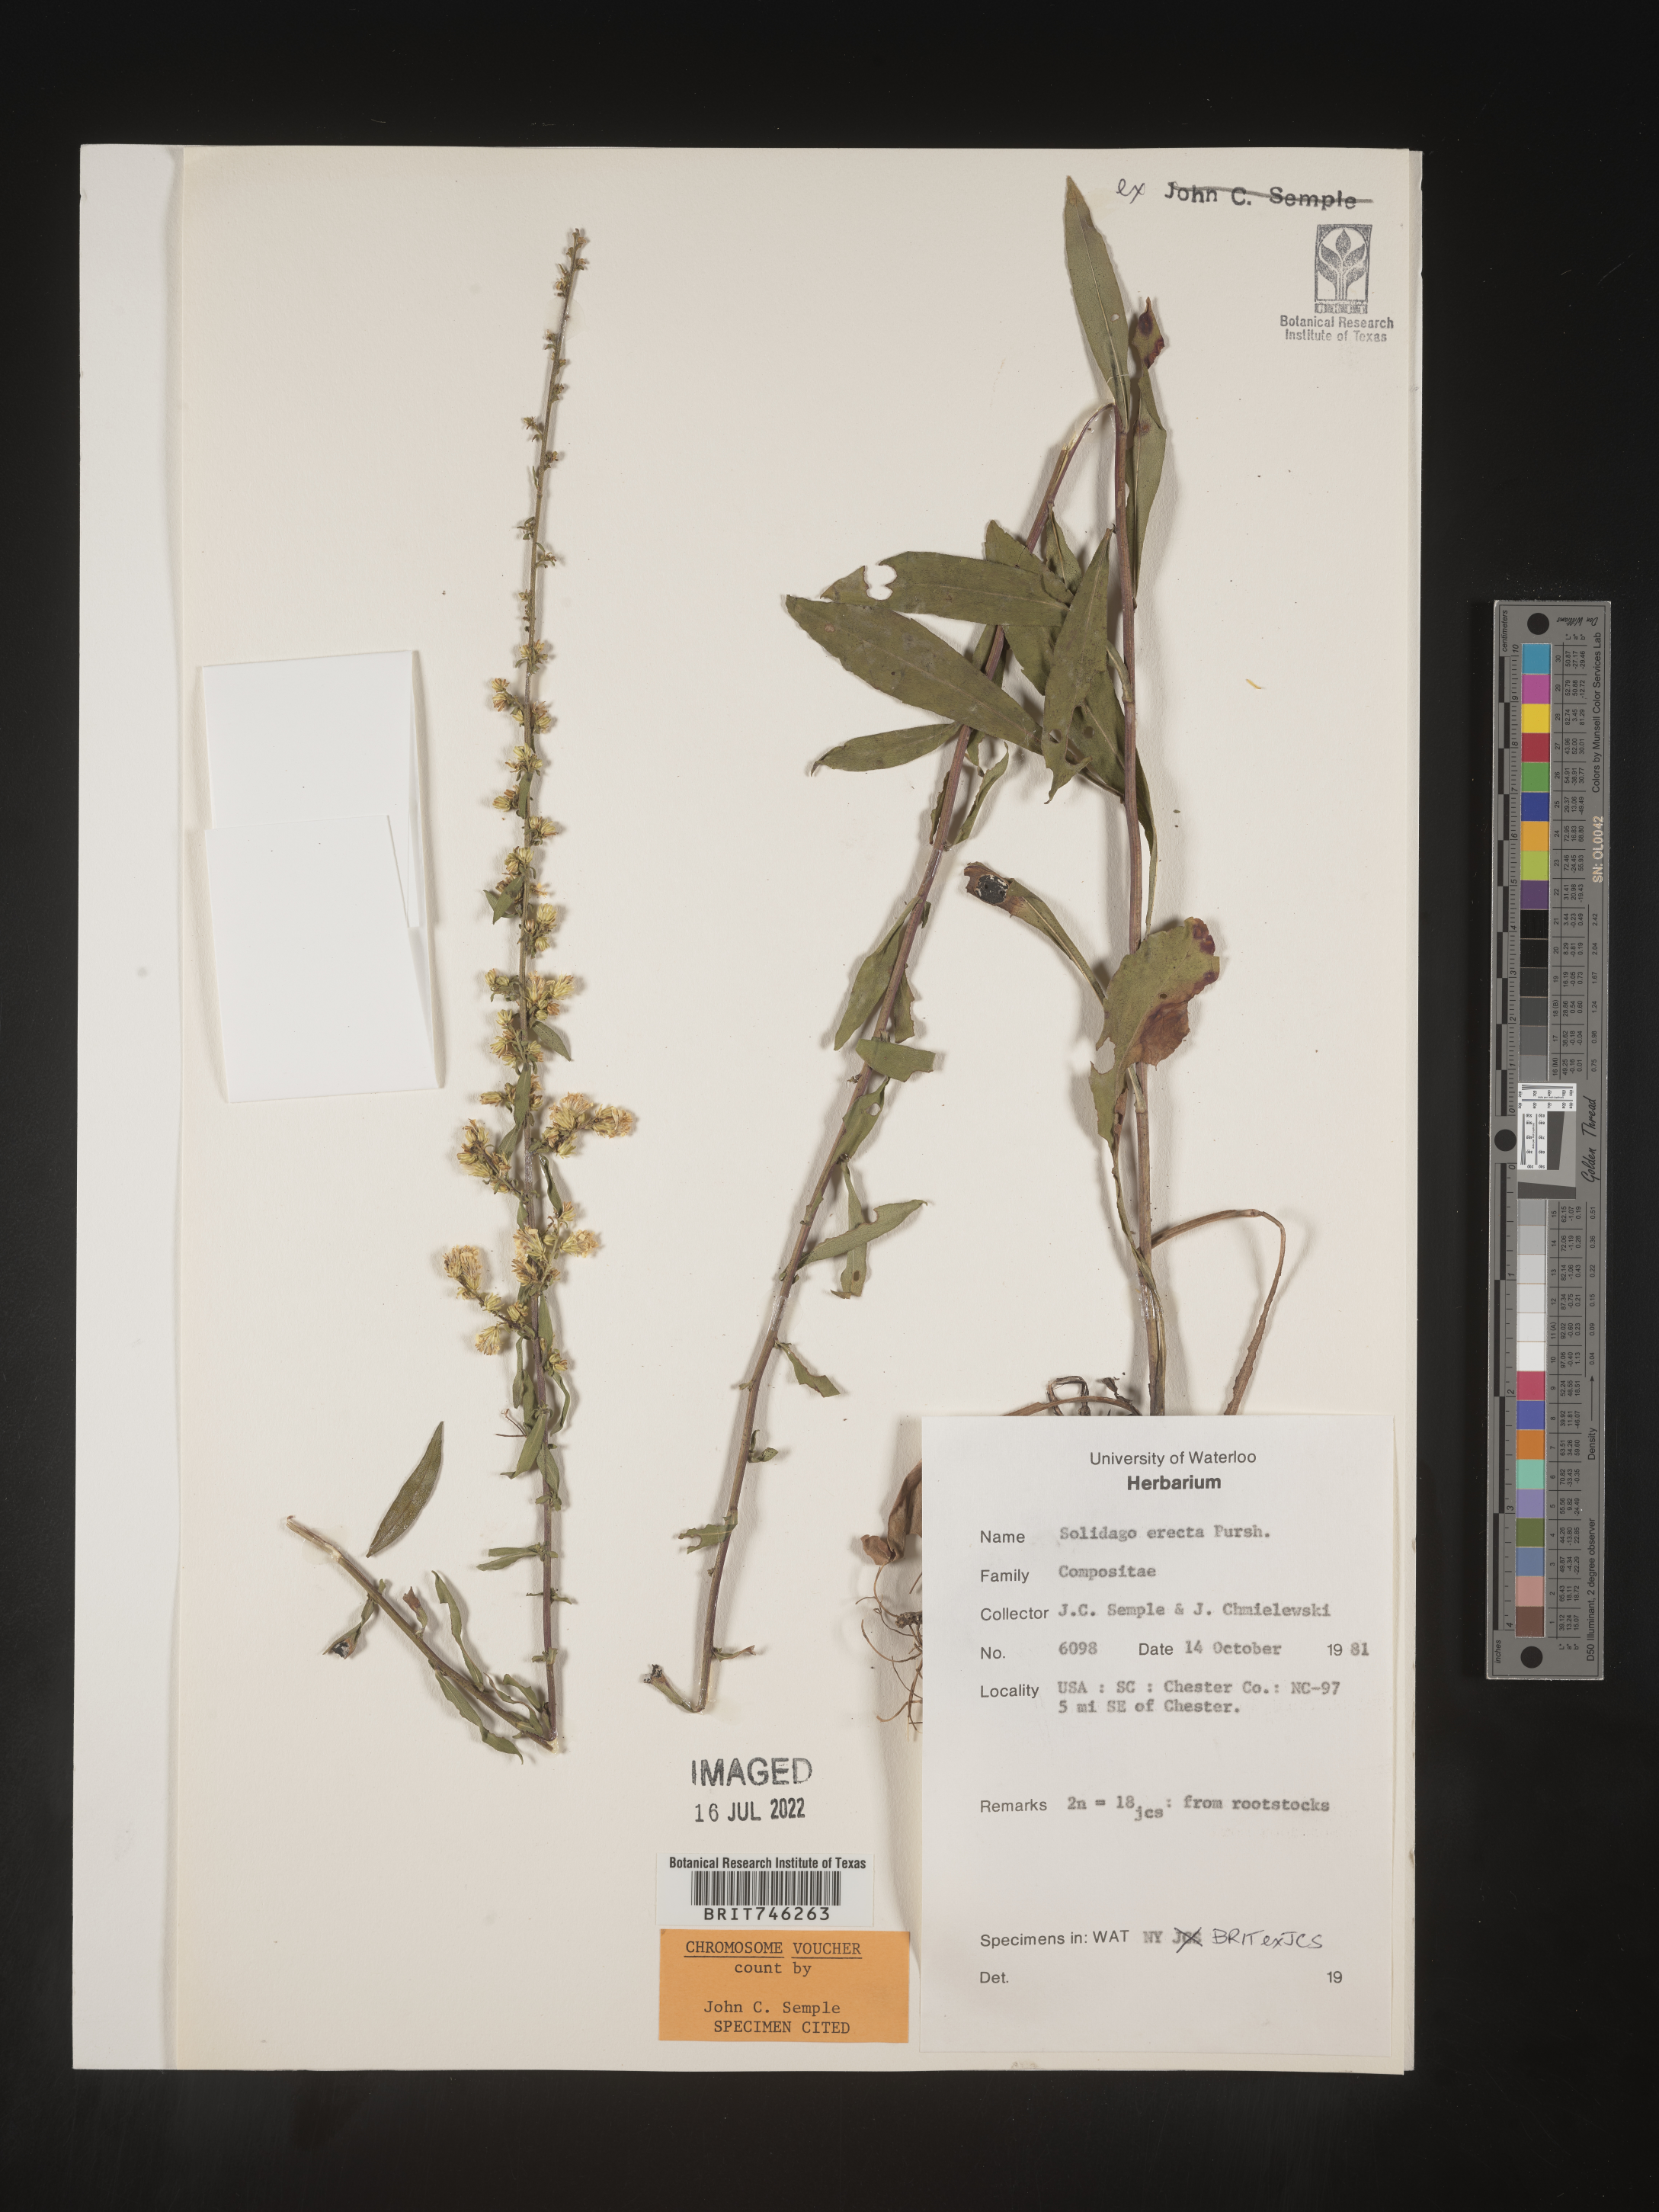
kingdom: Plantae
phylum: Tracheophyta
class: Magnoliopsida
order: Asterales
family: Asteraceae
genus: Solidago
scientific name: Solidago erecta
